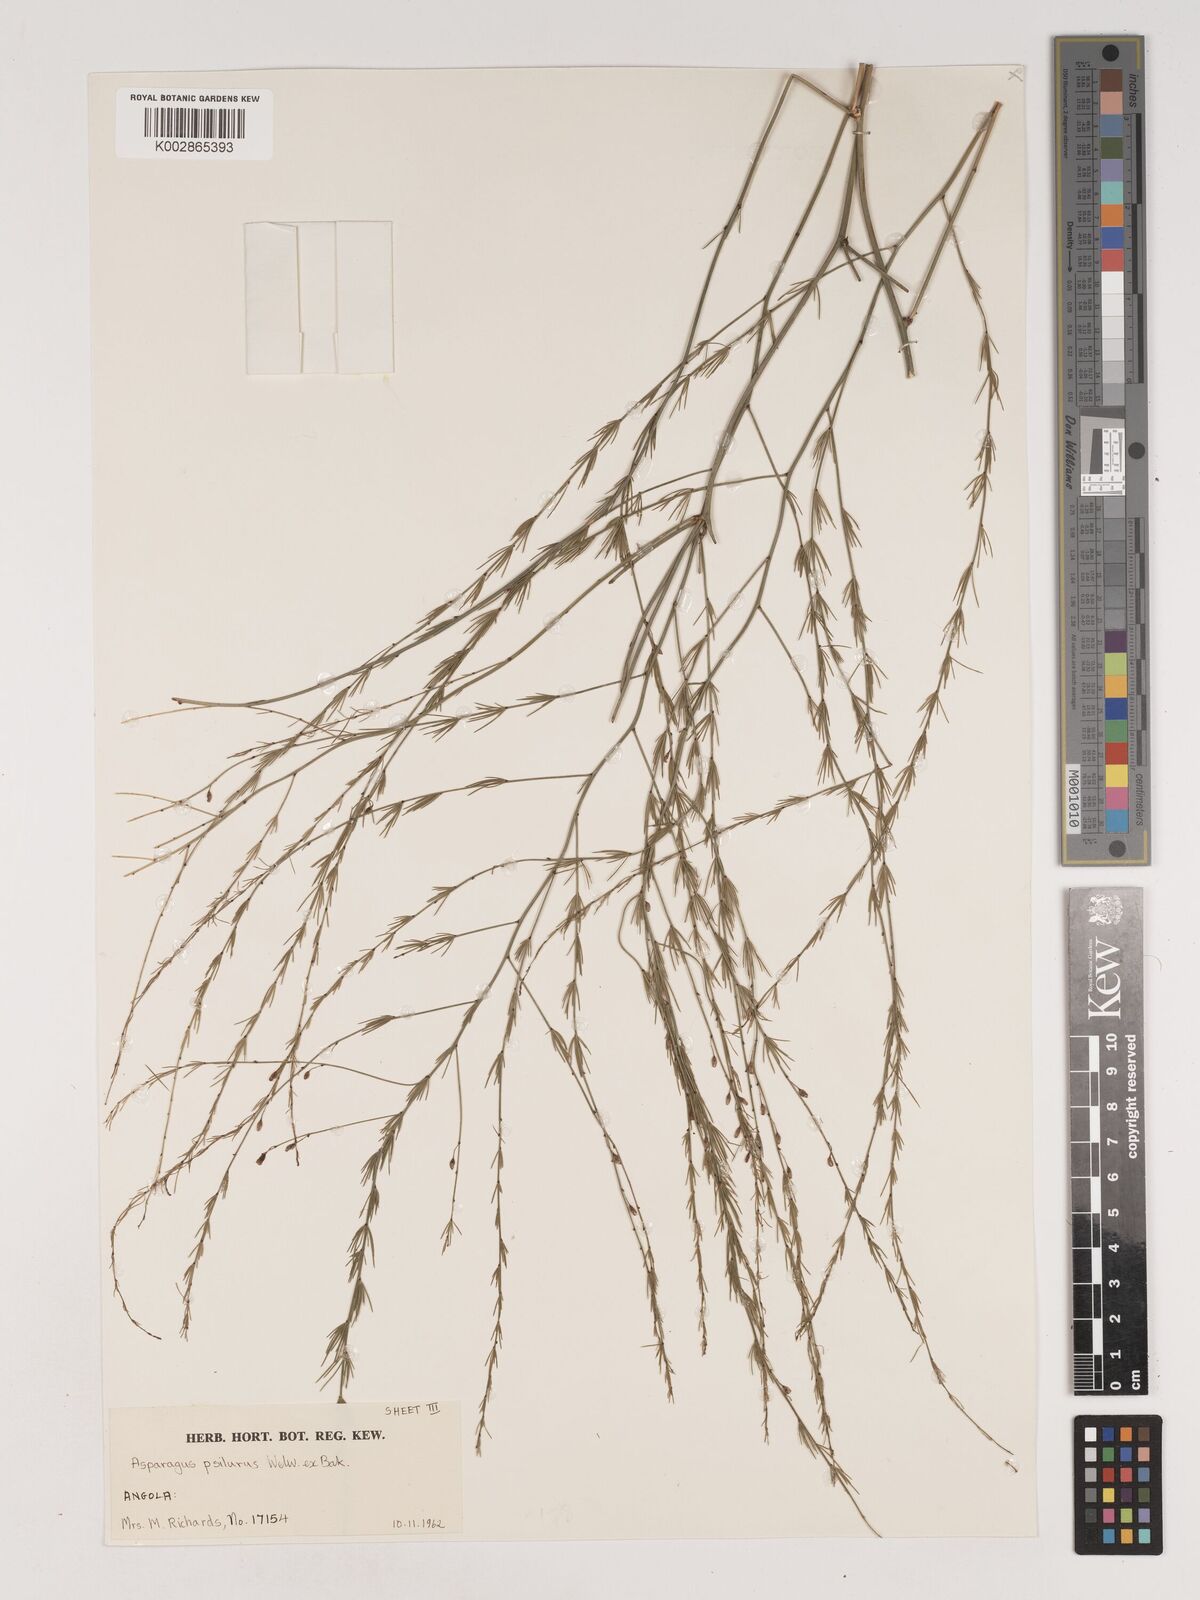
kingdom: Plantae
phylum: Tracheophyta
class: Liliopsida
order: Asparagales
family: Asparagaceae
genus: Asparagus
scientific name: Asparagus psilurus
